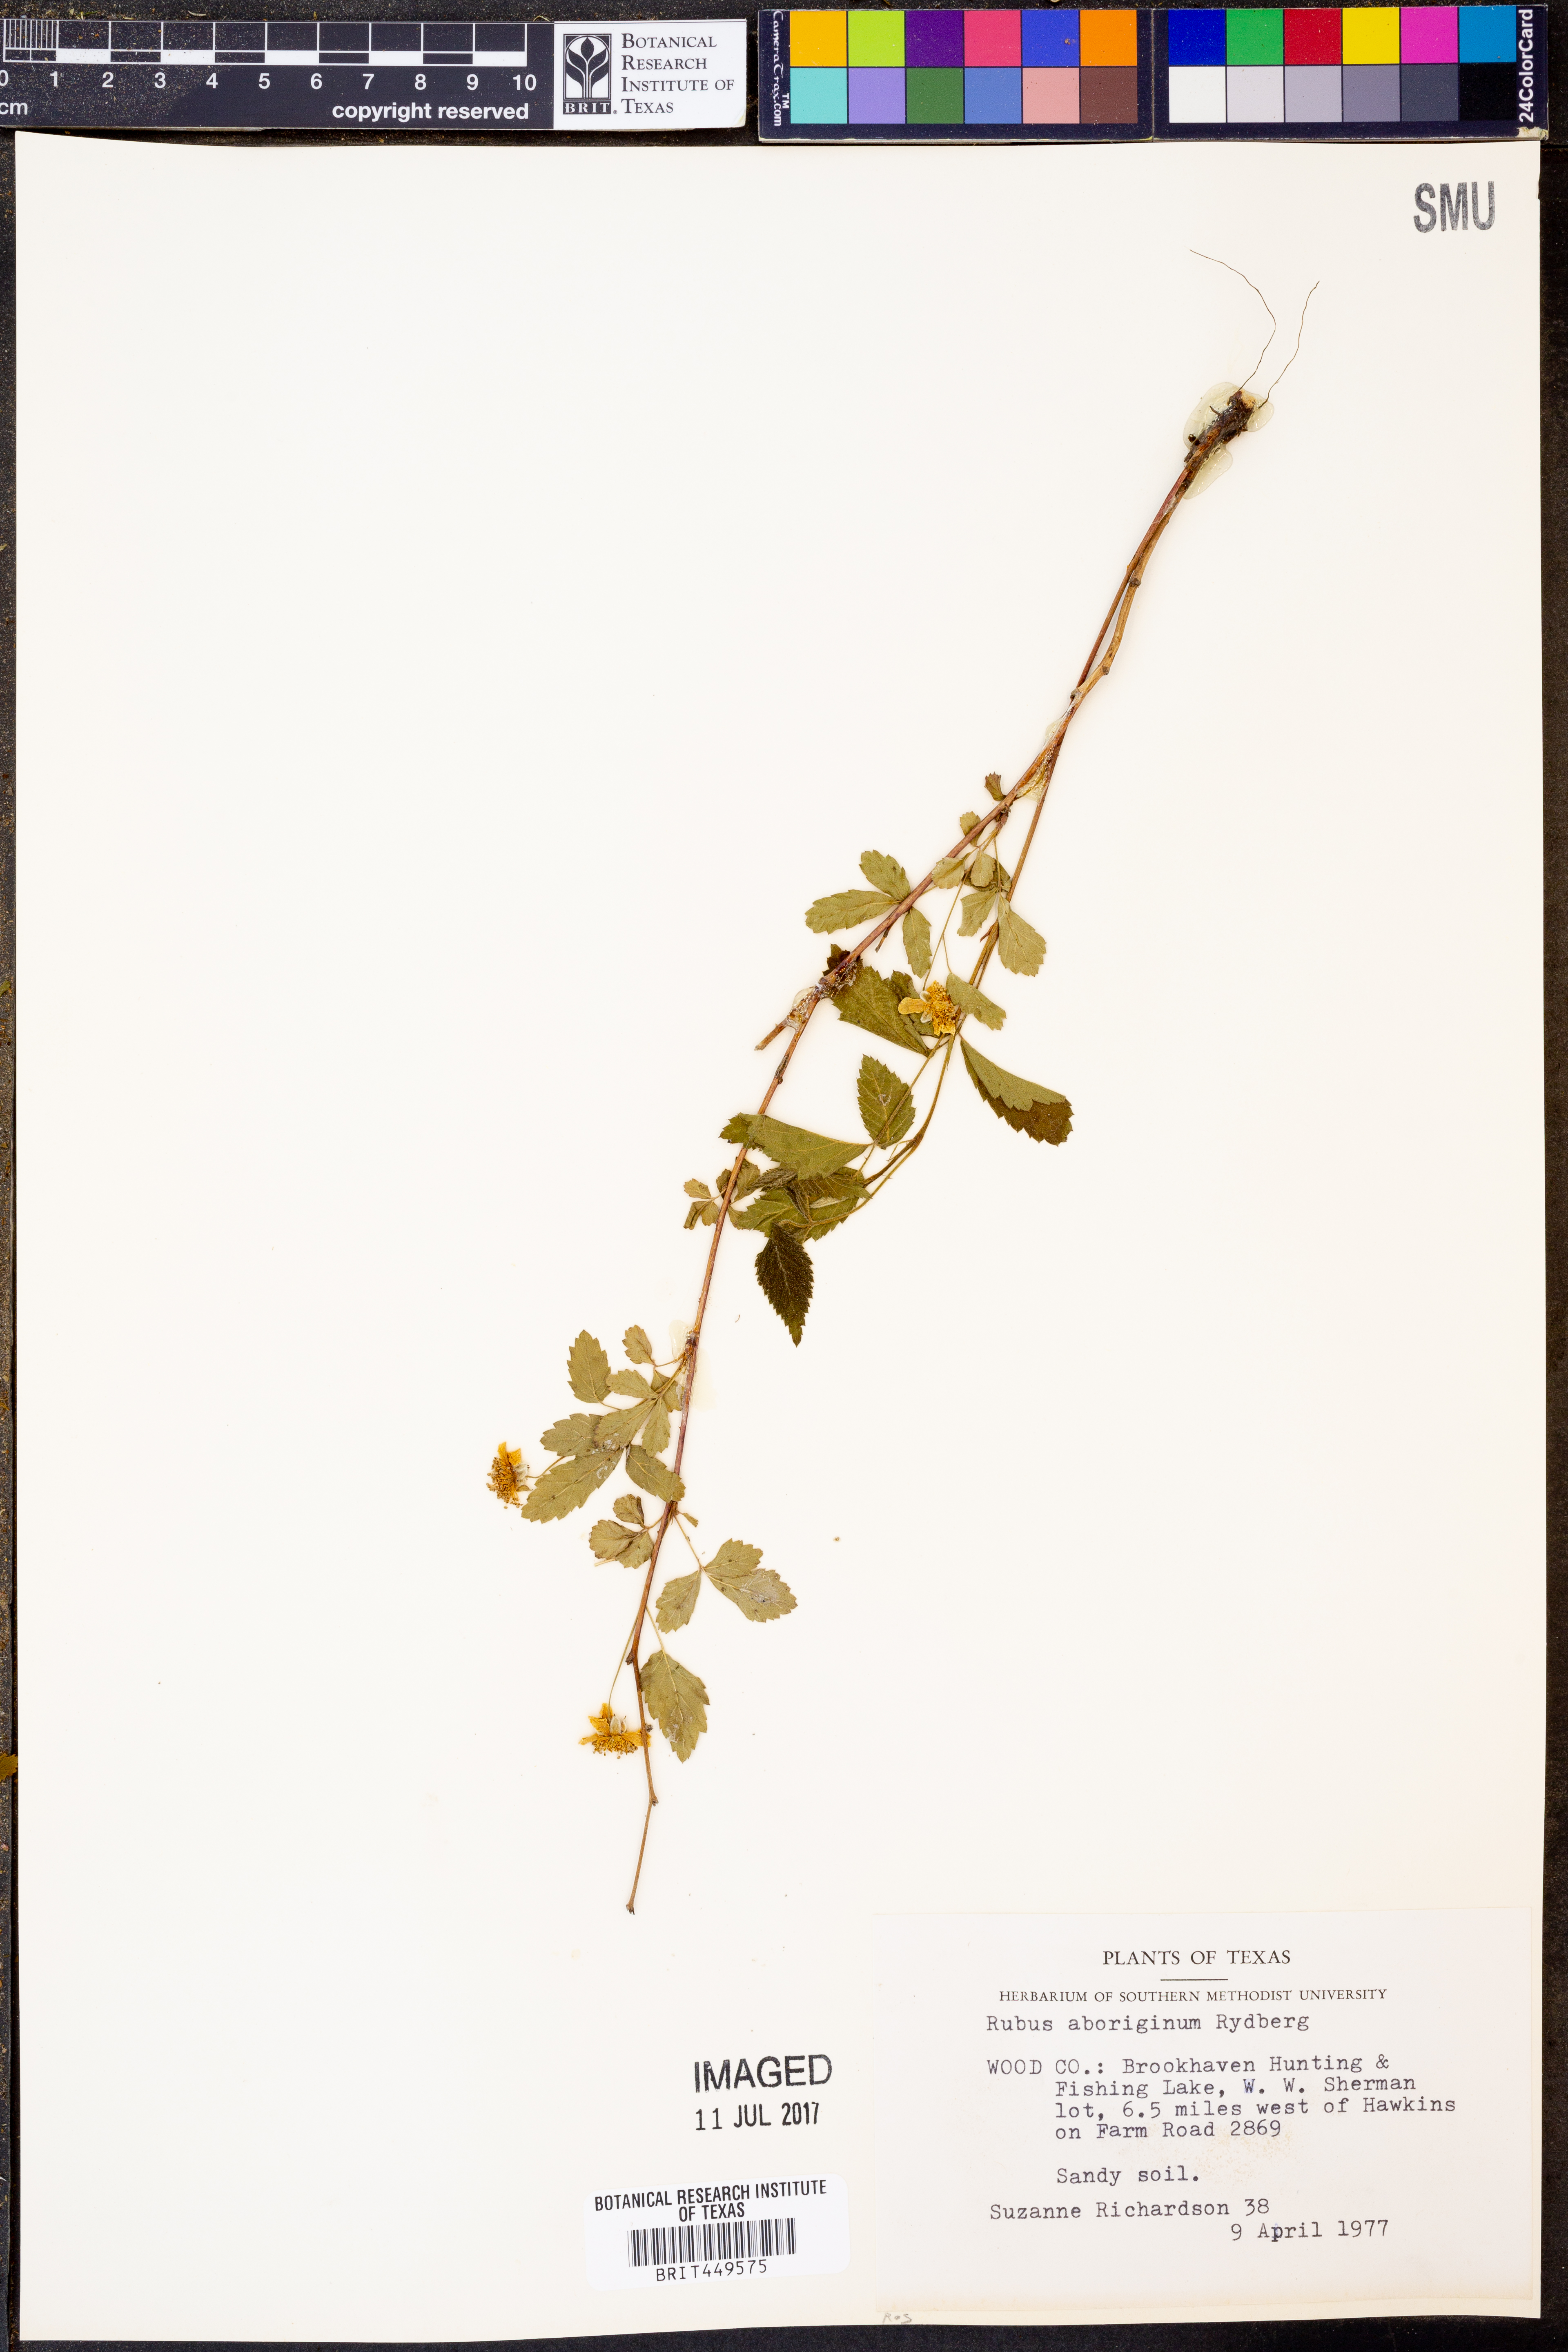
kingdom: Plantae
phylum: Tracheophyta
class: Magnoliopsida
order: Rosales
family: Rosaceae
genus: Rubus
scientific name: Rubus aboriginum
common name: Mayes dewberry
